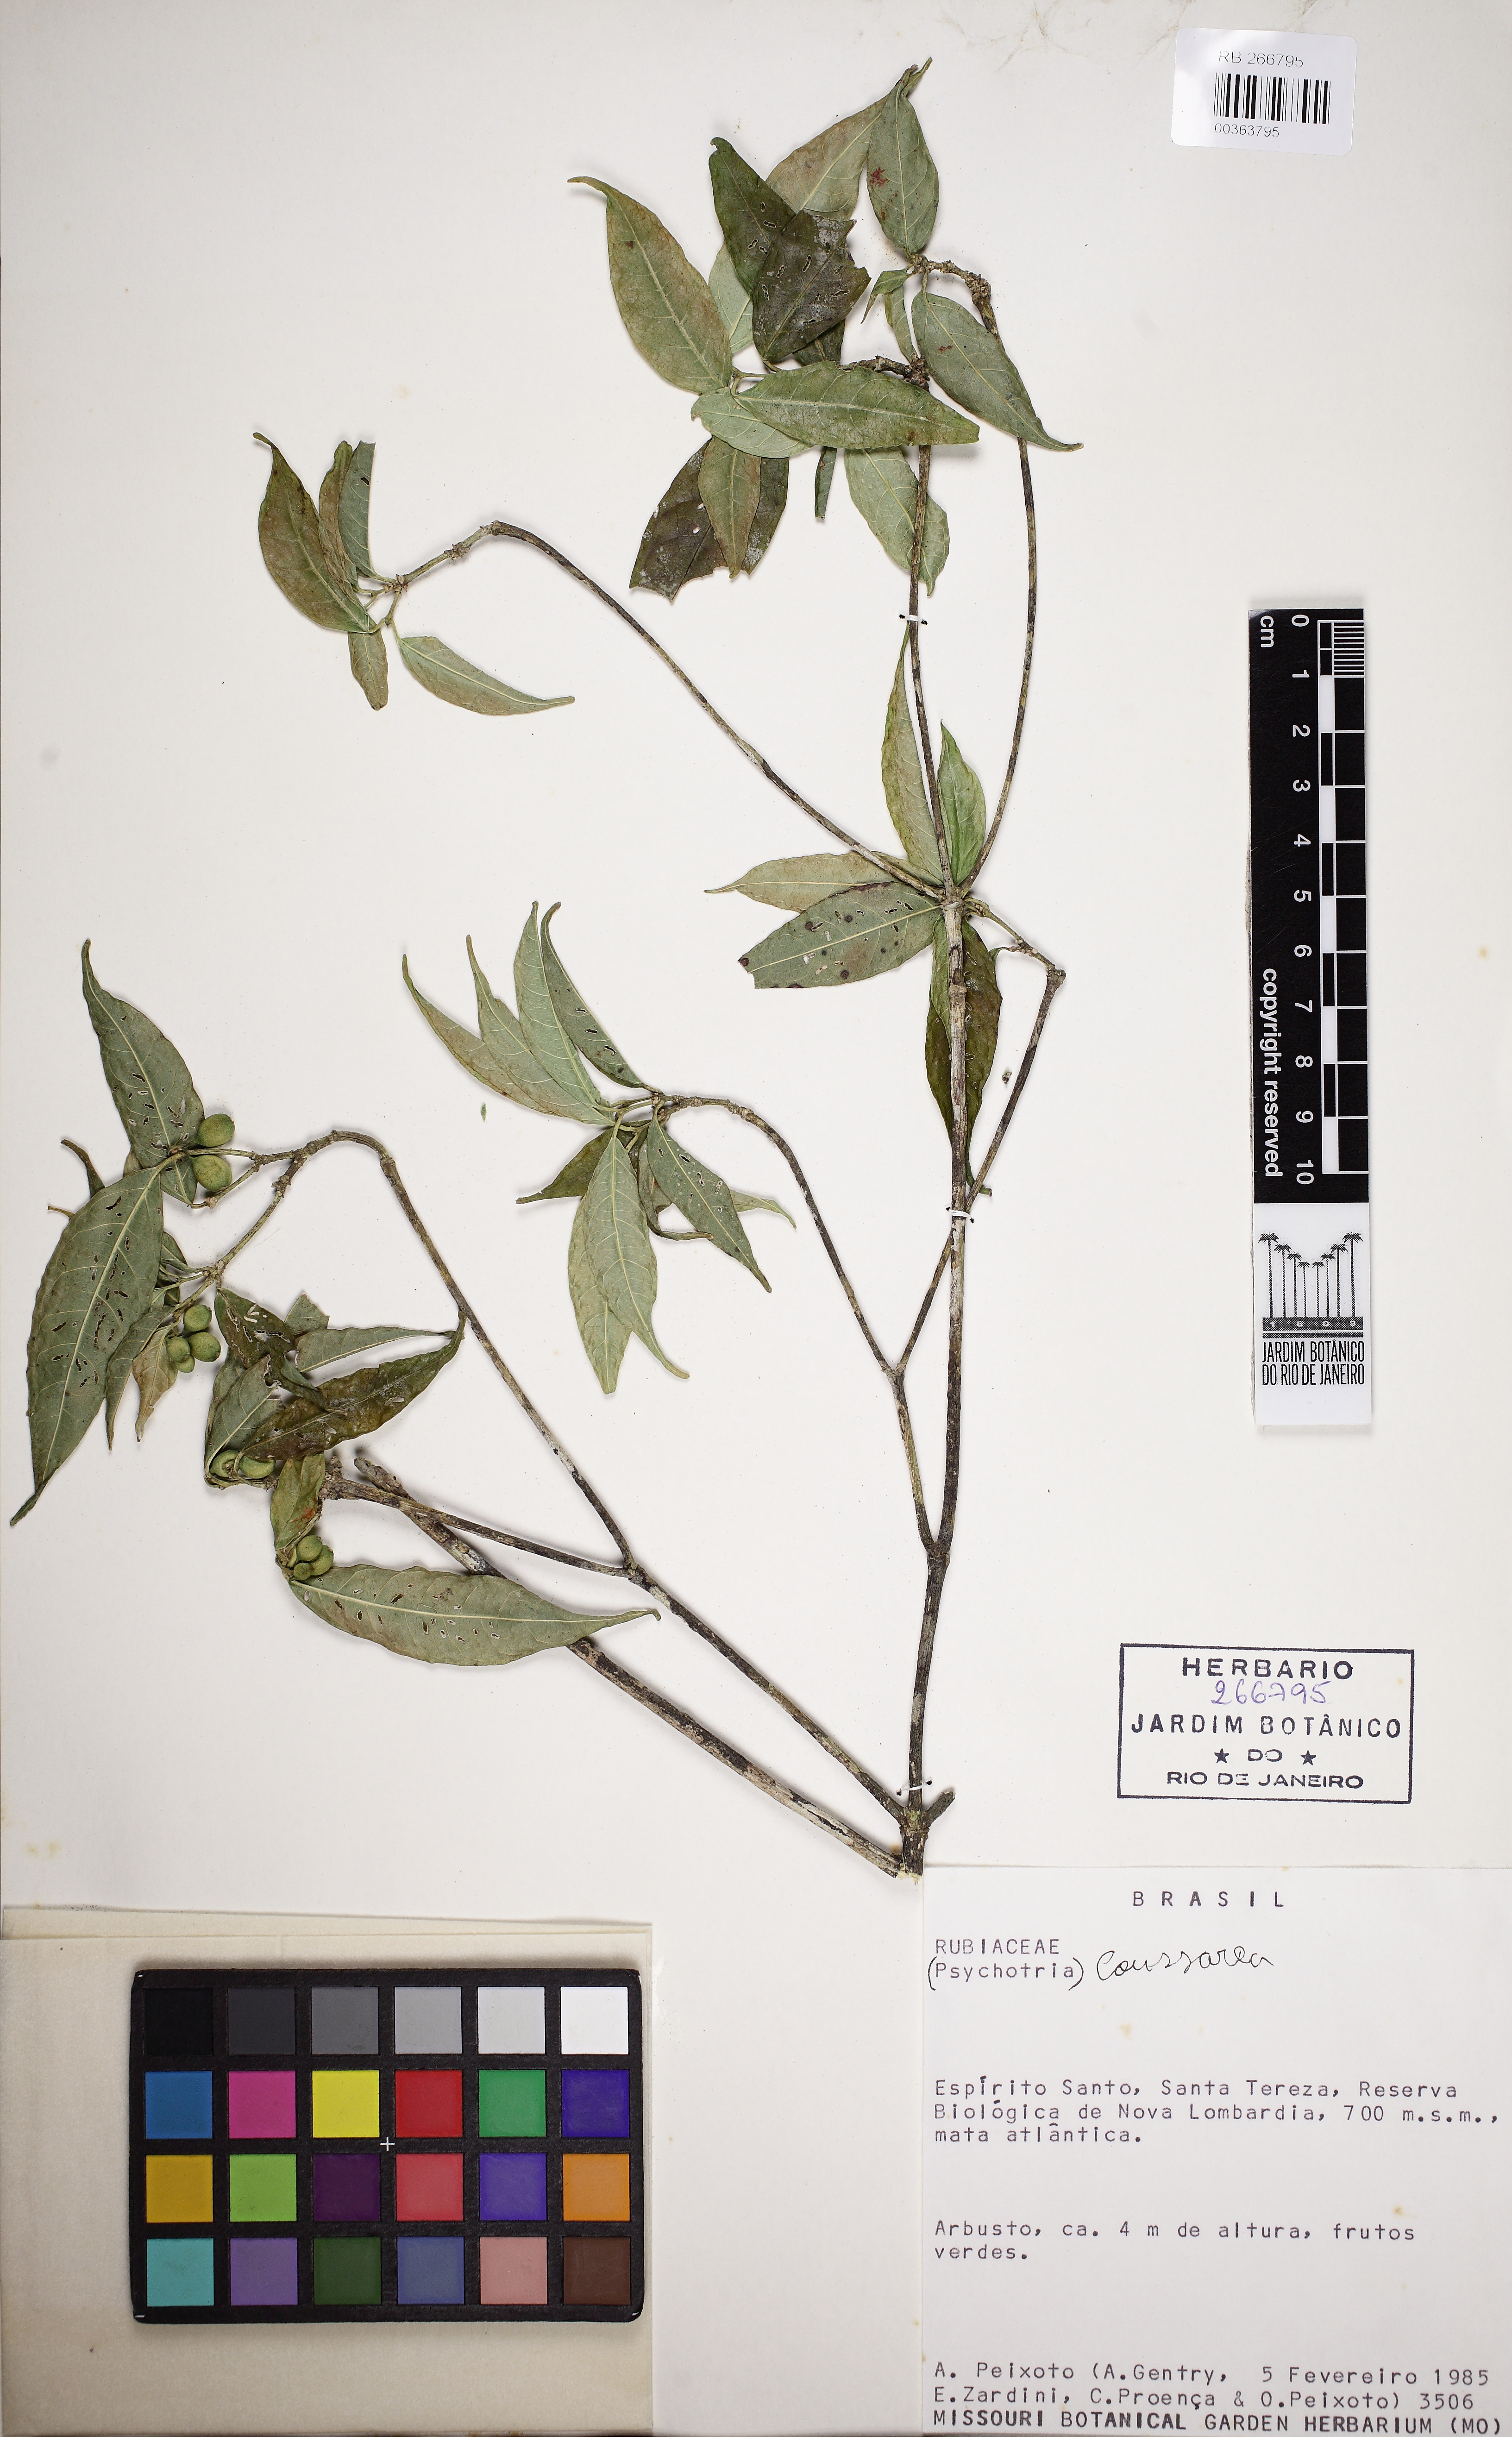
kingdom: Plantae
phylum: Tracheophyta
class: Magnoliopsida
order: Gentianales
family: Rubiaceae
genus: Coussarea
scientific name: Coussarea
